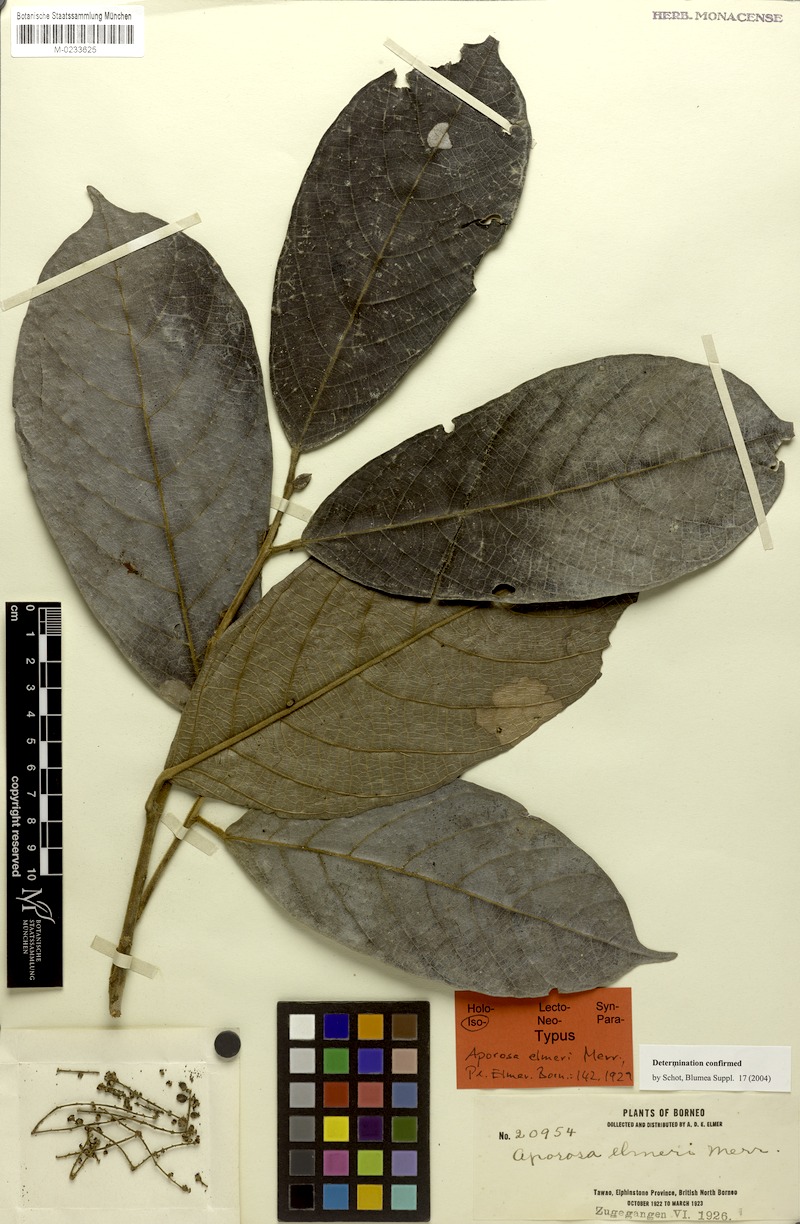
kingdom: Plantae
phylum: Tracheophyta
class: Magnoliopsida
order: Malpighiales
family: Phyllanthaceae
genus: Aporosa
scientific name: Aporosa elmeri
